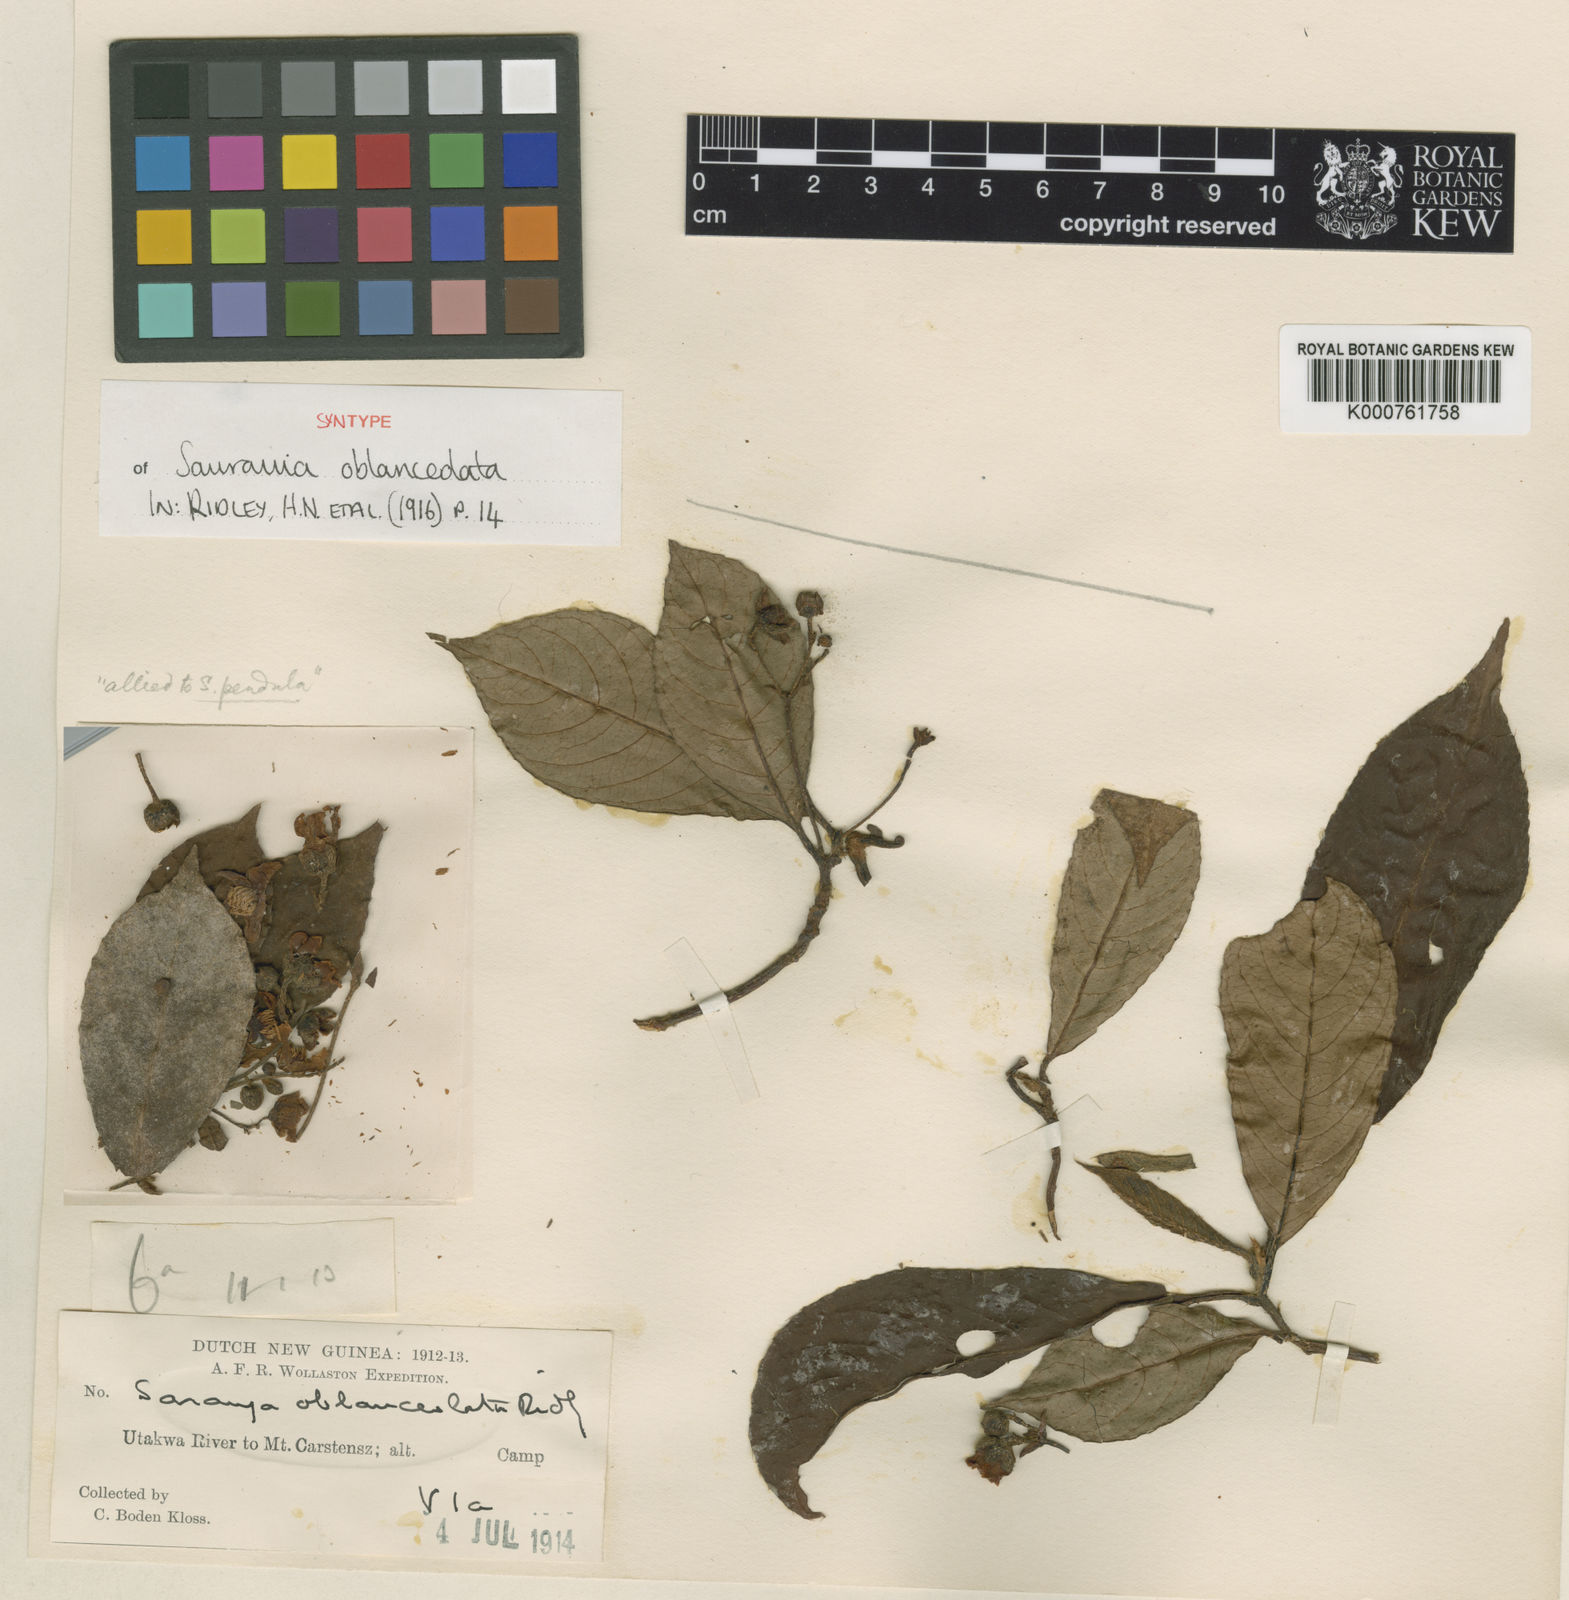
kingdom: Plantae
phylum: Tracheophyta
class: Magnoliopsida
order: Ericales
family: Actinidiaceae
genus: Saurauia
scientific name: Saurauia oblanceolata
